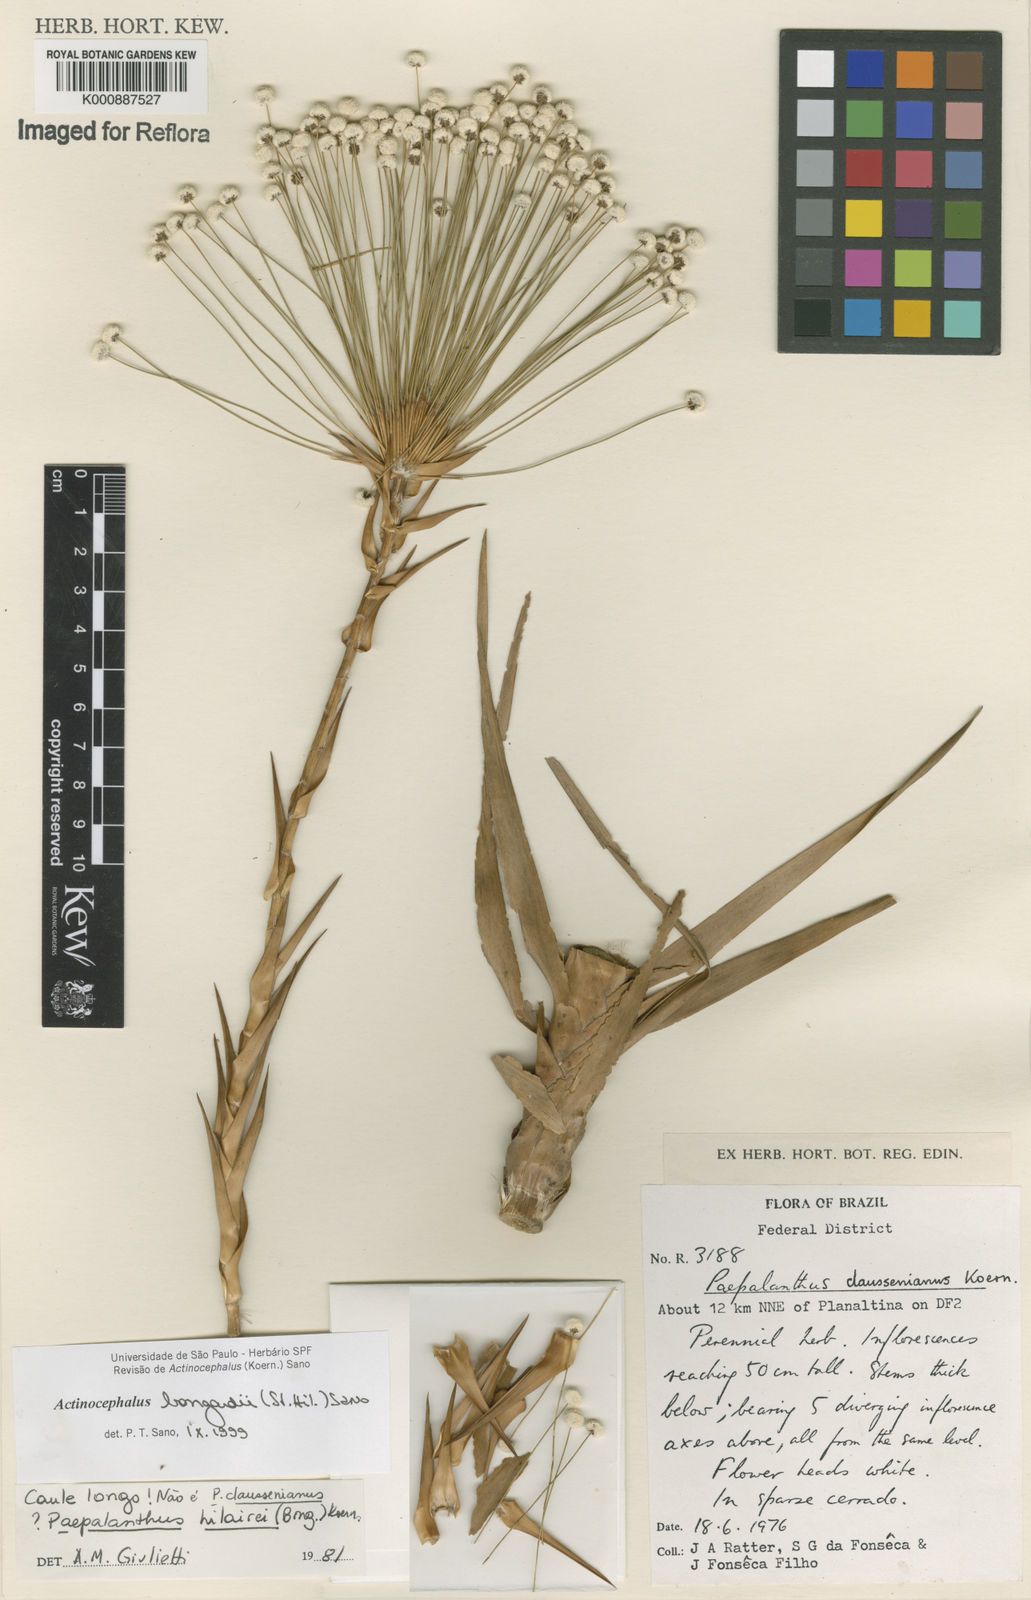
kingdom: Plantae
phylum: Tracheophyta
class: Liliopsida
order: Poales
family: Eriocaulaceae
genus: Paepalanthus
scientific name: Paepalanthus hilairei
